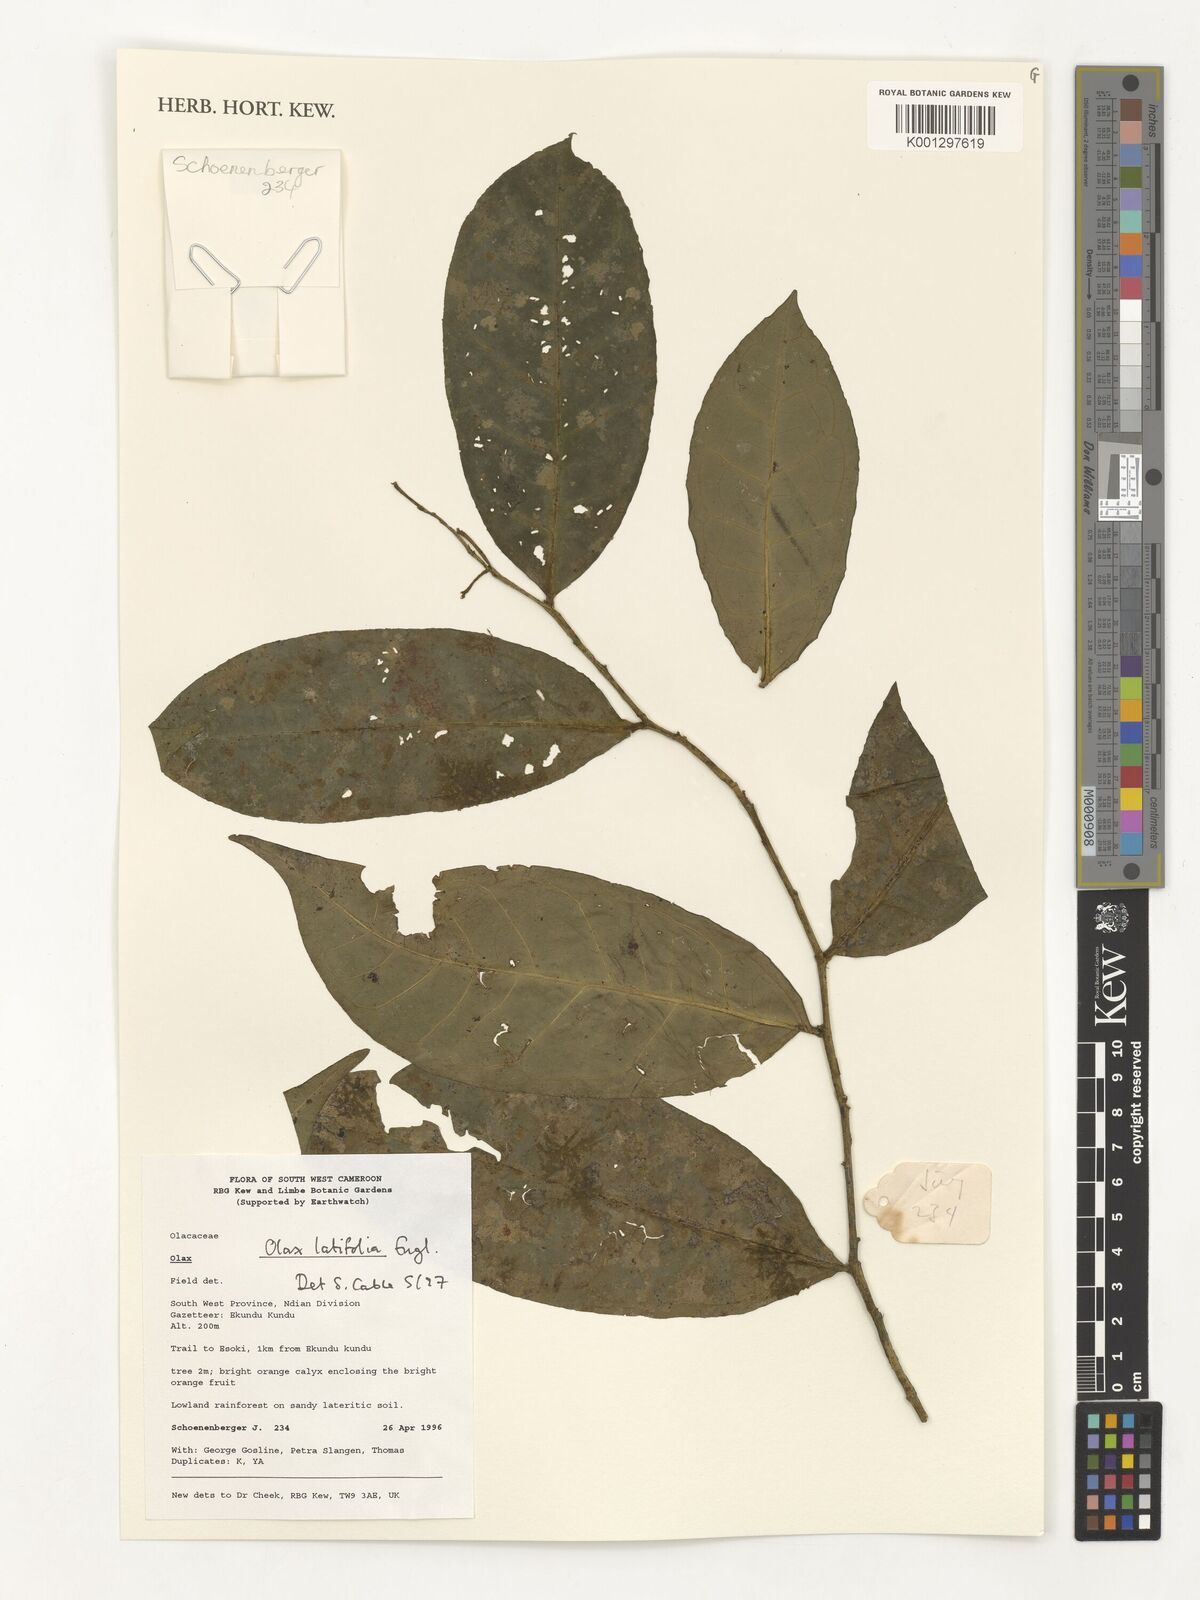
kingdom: Plantae
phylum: Tracheophyta
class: Magnoliopsida
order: Santalales
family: Olacaceae
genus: Olax
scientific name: Olax latifolia
